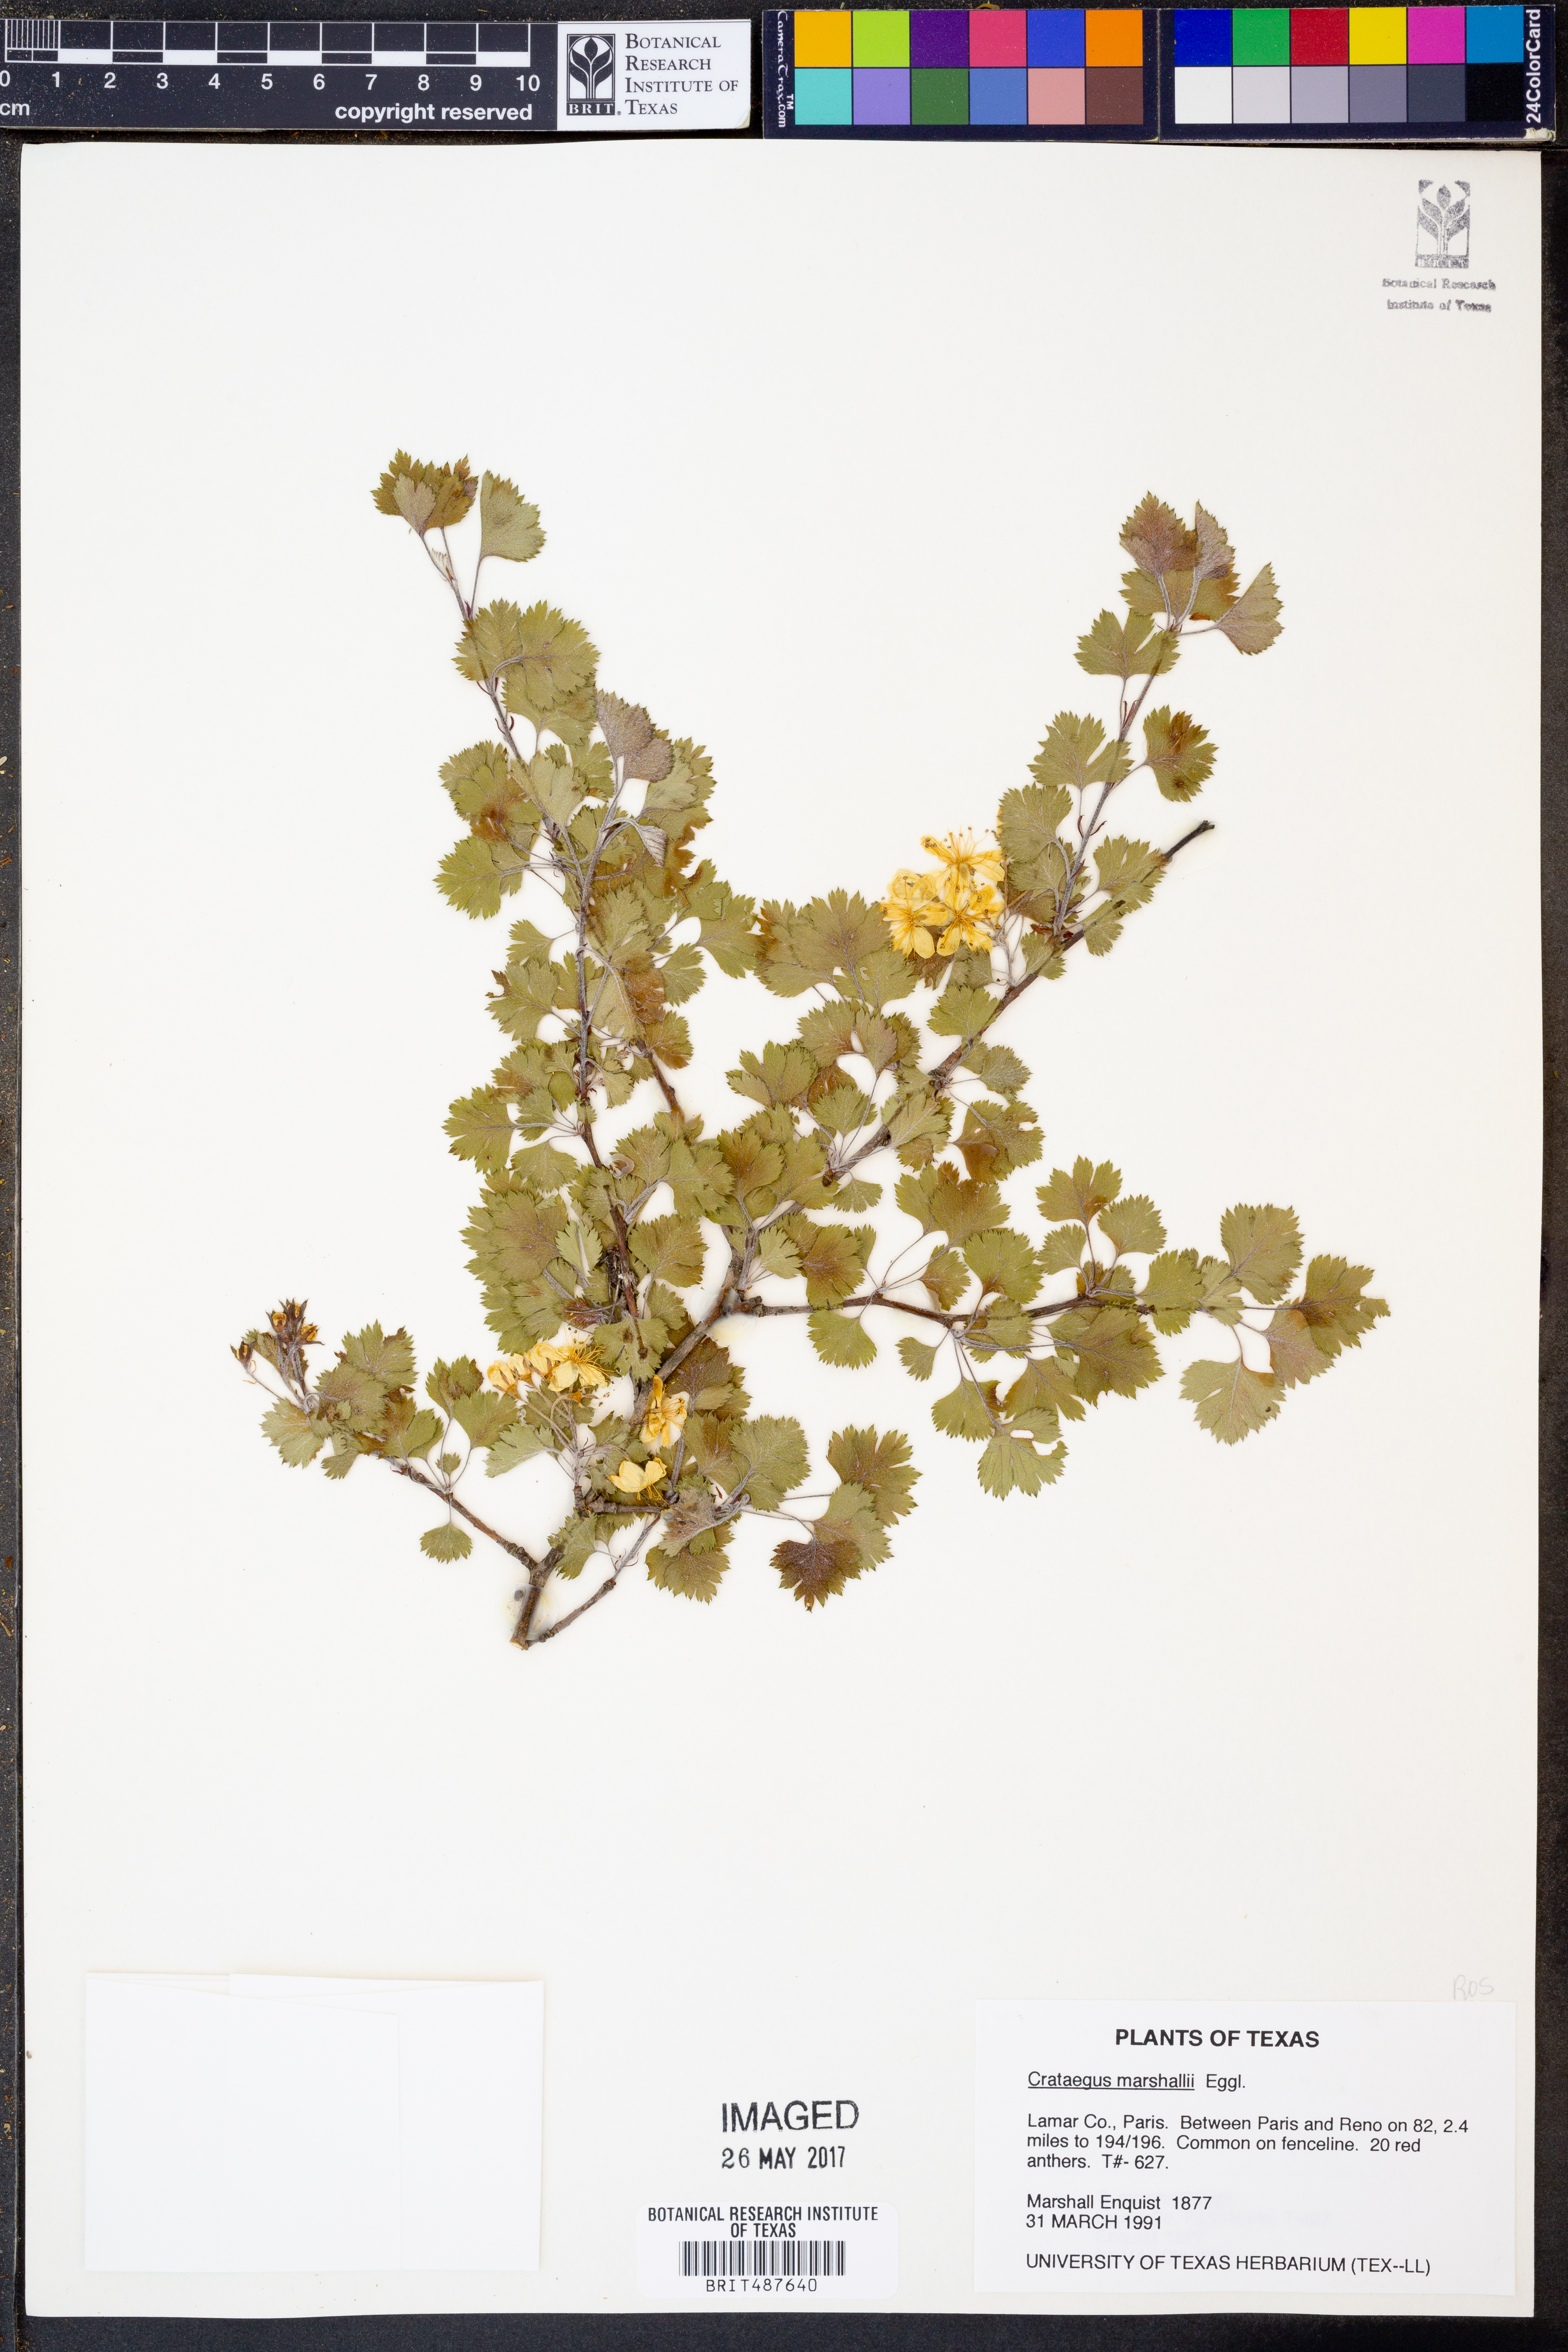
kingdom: Plantae
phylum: Tracheophyta
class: Magnoliopsida
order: Rosales
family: Rosaceae
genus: Crataegus
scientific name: Crataegus marshallii
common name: Parsley-hawthorn
